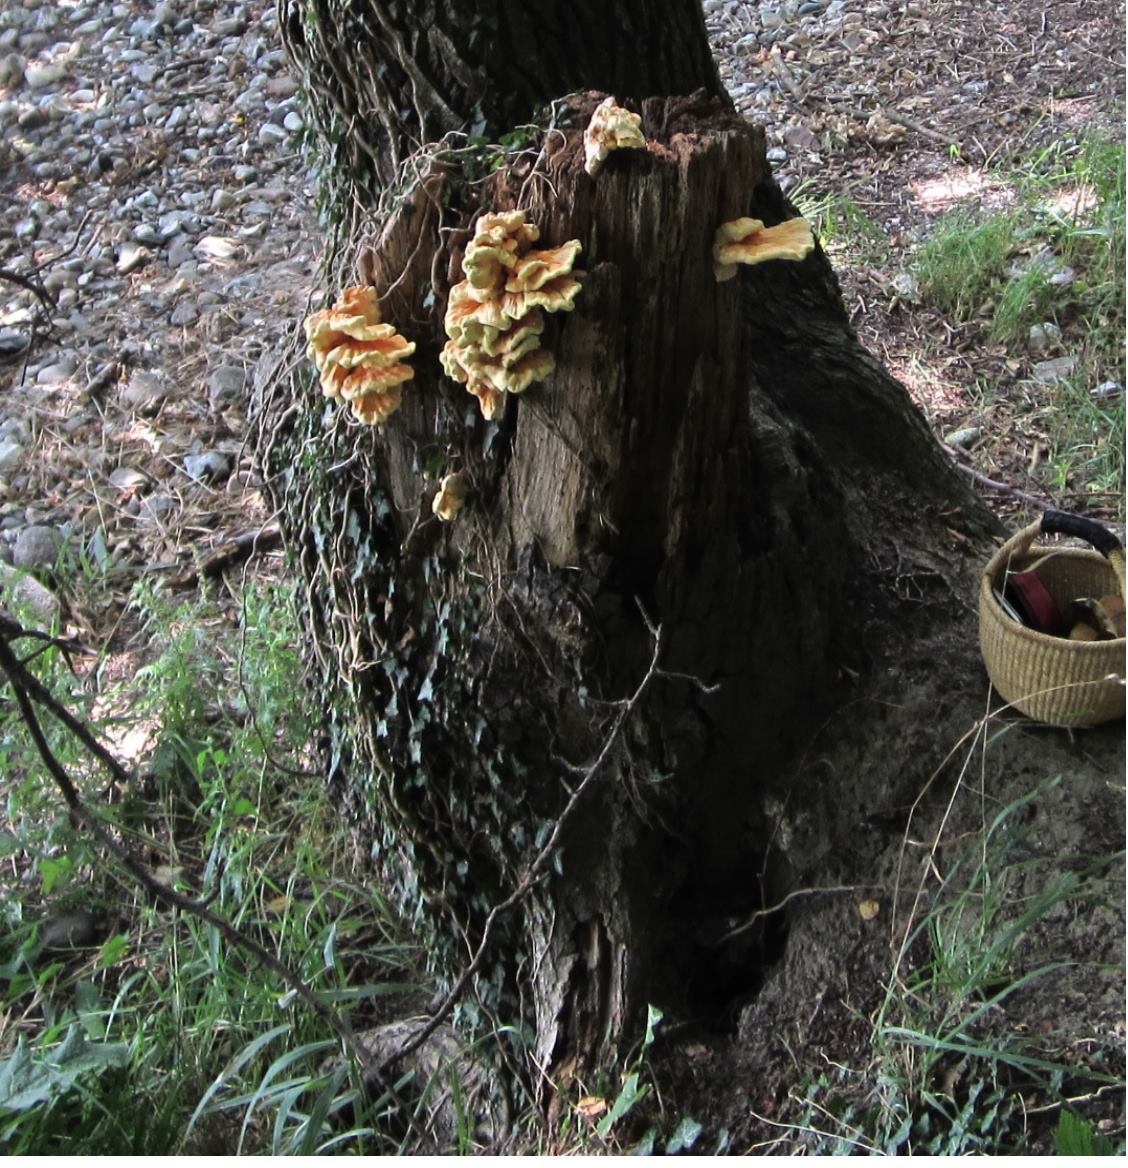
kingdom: Fungi
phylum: Basidiomycota
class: Agaricomycetes
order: Polyporales
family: Laetiporaceae
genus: Laetiporus
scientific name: Laetiporus sulphureus
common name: svovlporesvamp
